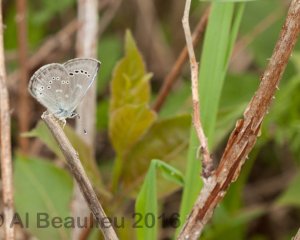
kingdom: Animalia
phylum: Arthropoda
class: Insecta
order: Lepidoptera
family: Lycaenidae
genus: Glaucopsyche
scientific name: Glaucopsyche lygdamus
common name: Silvery Blue
